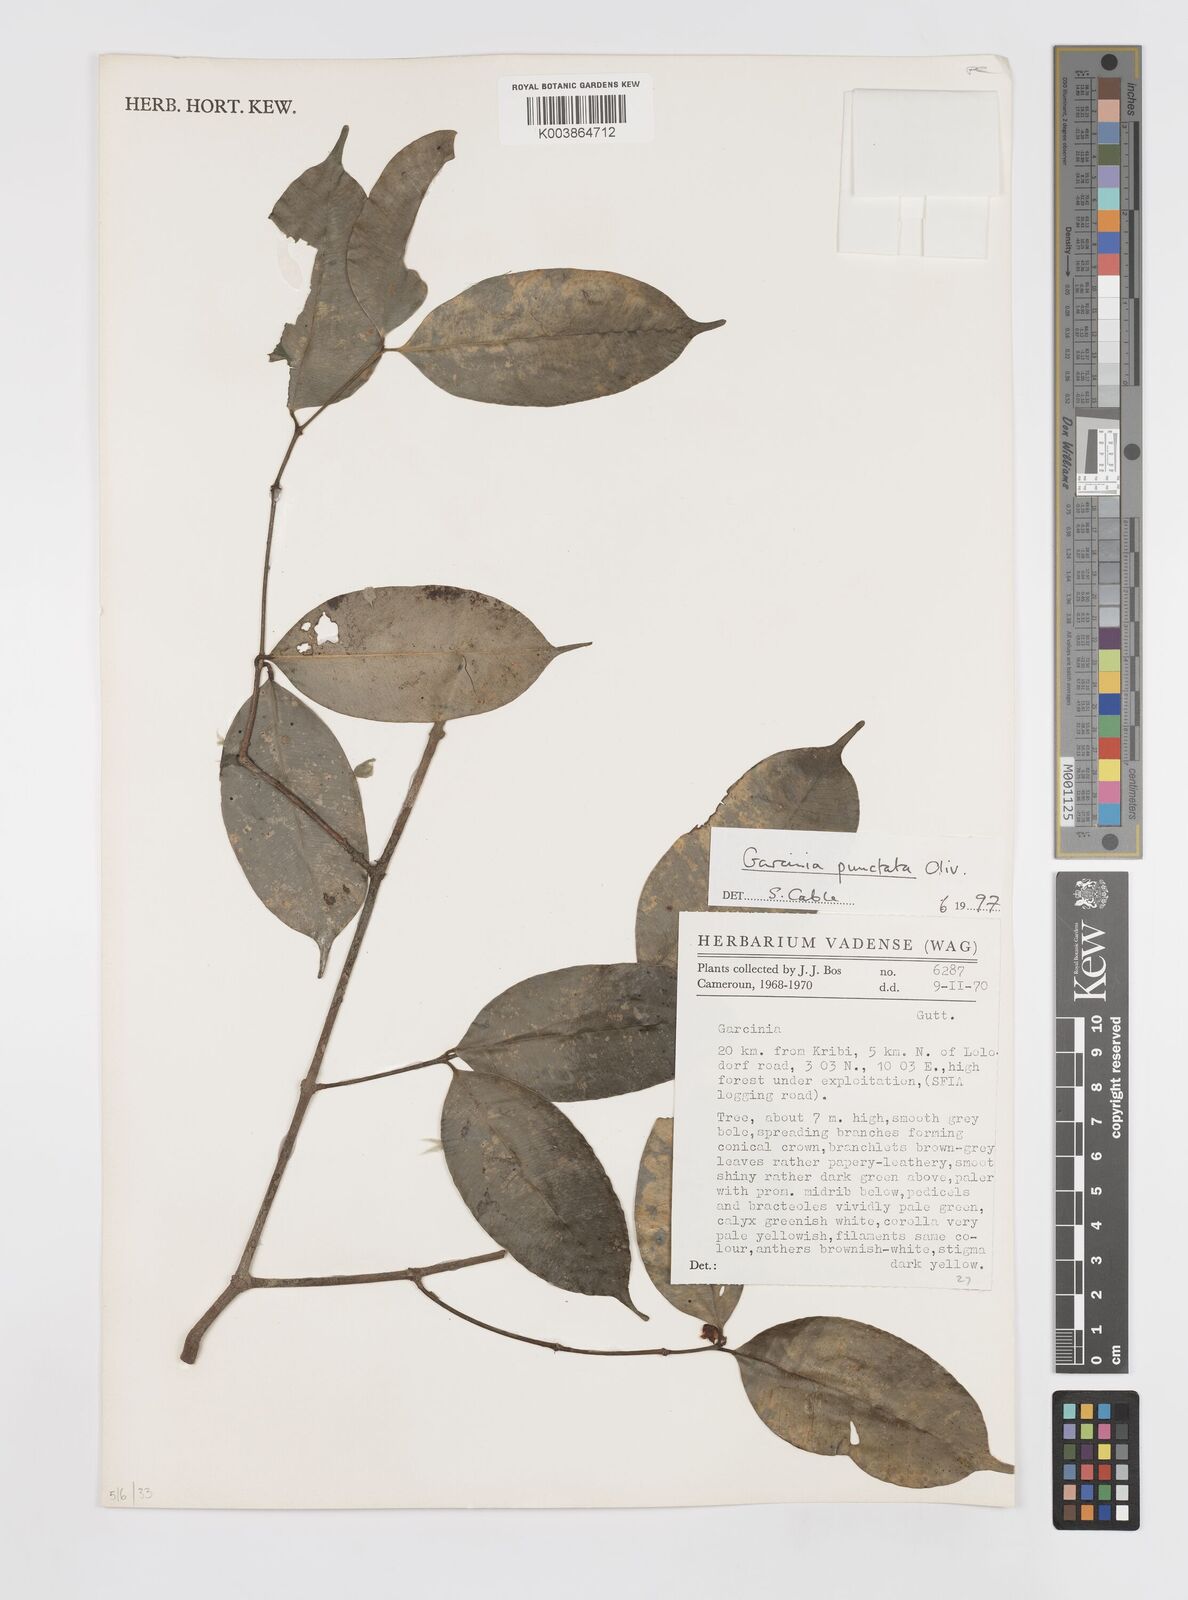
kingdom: Plantae
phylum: Tracheophyta
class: Magnoliopsida
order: Malpighiales
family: Clusiaceae
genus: Garcinia
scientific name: Garcinia punctata
